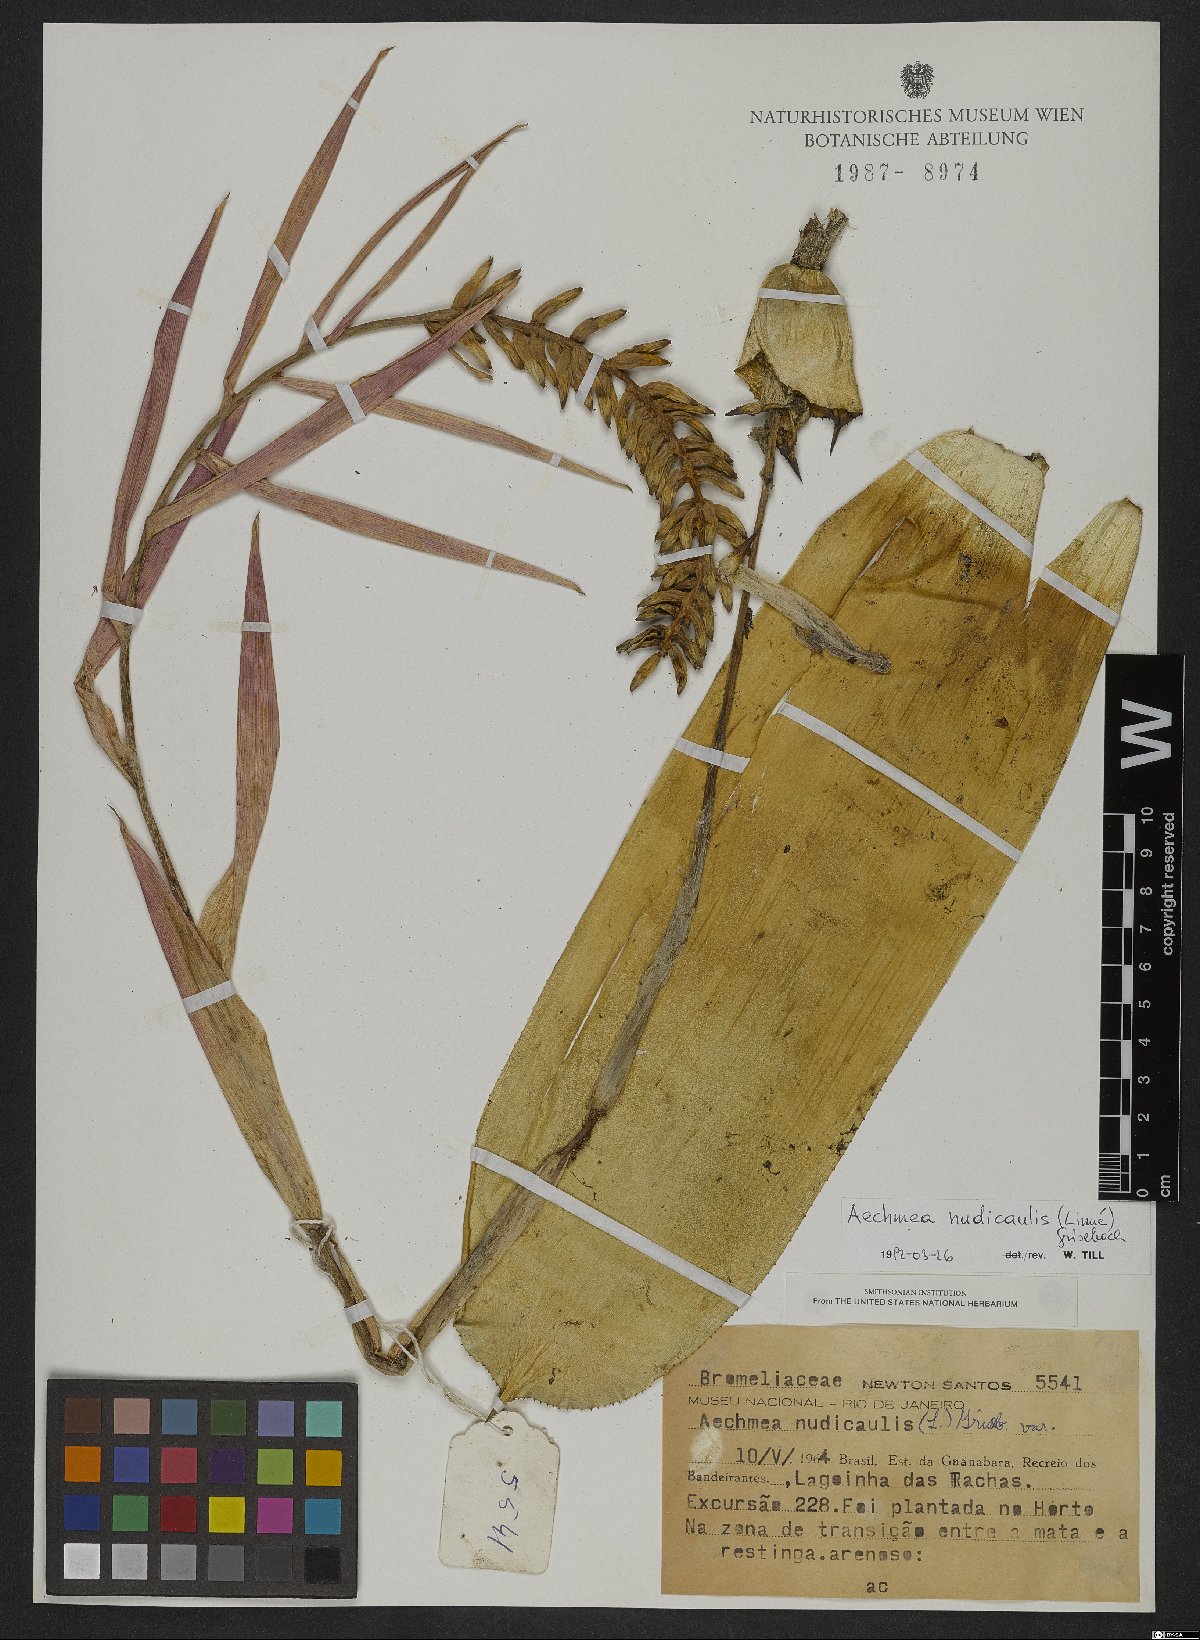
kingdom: Plantae
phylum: Tracheophyta
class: Liliopsida
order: Poales
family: Bromeliaceae
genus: Aechmea
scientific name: Aechmea nudicaulis
